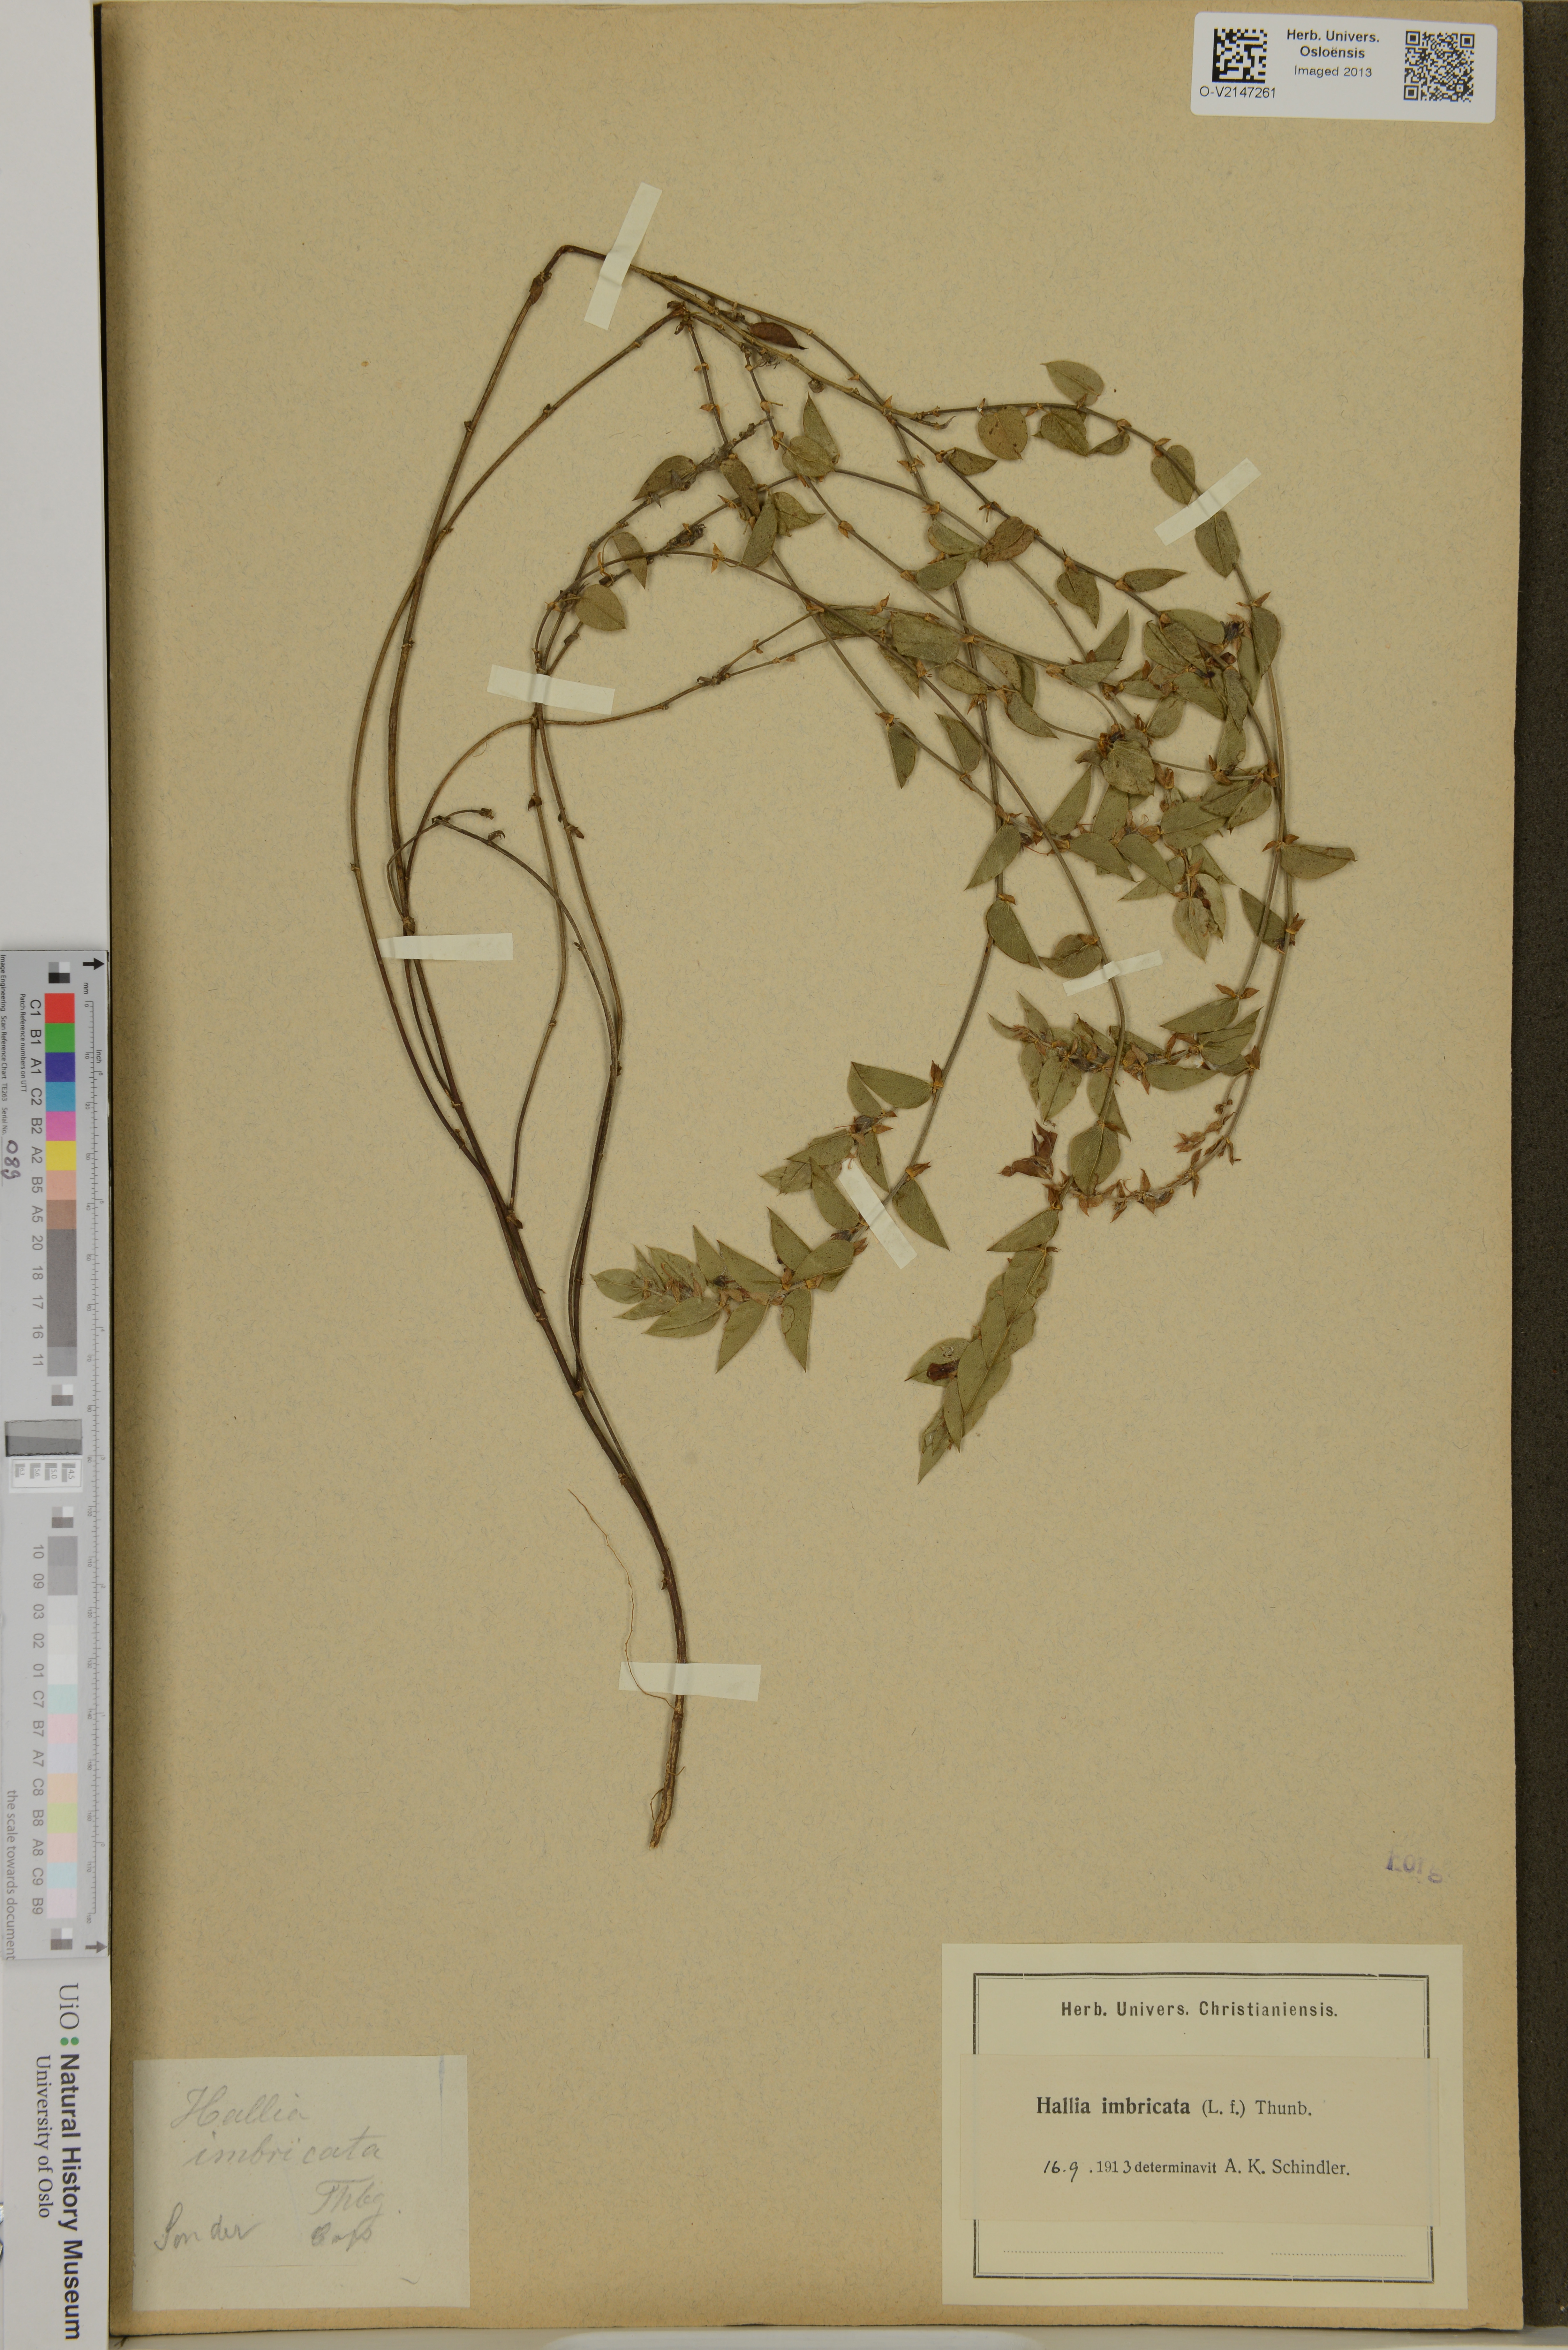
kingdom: Plantae
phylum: Tracheophyta
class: Magnoliopsida
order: Fabales
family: Fabaceae
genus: Psoralea
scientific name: Psoralea imbricata
